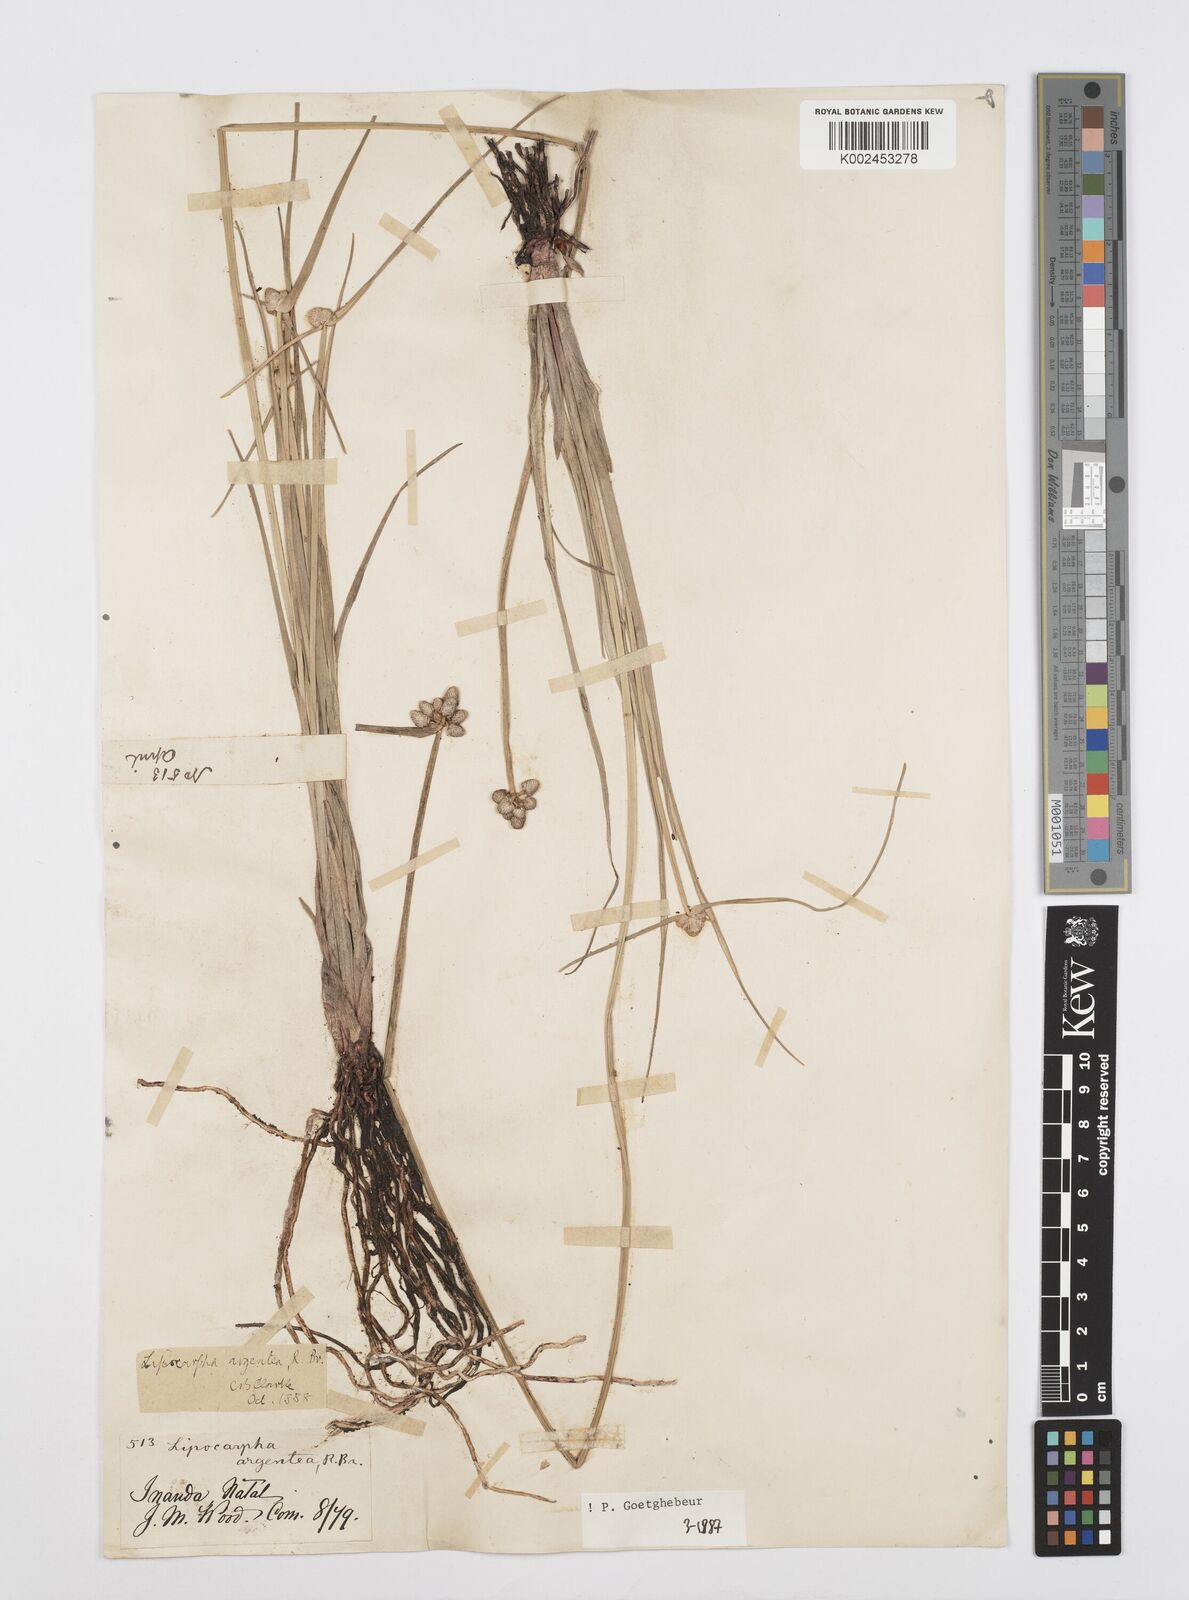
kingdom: Plantae
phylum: Tracheophyta
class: Liliopsida
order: Poales
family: Cyperaceae
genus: Cyperus
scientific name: Cyperus albescens
